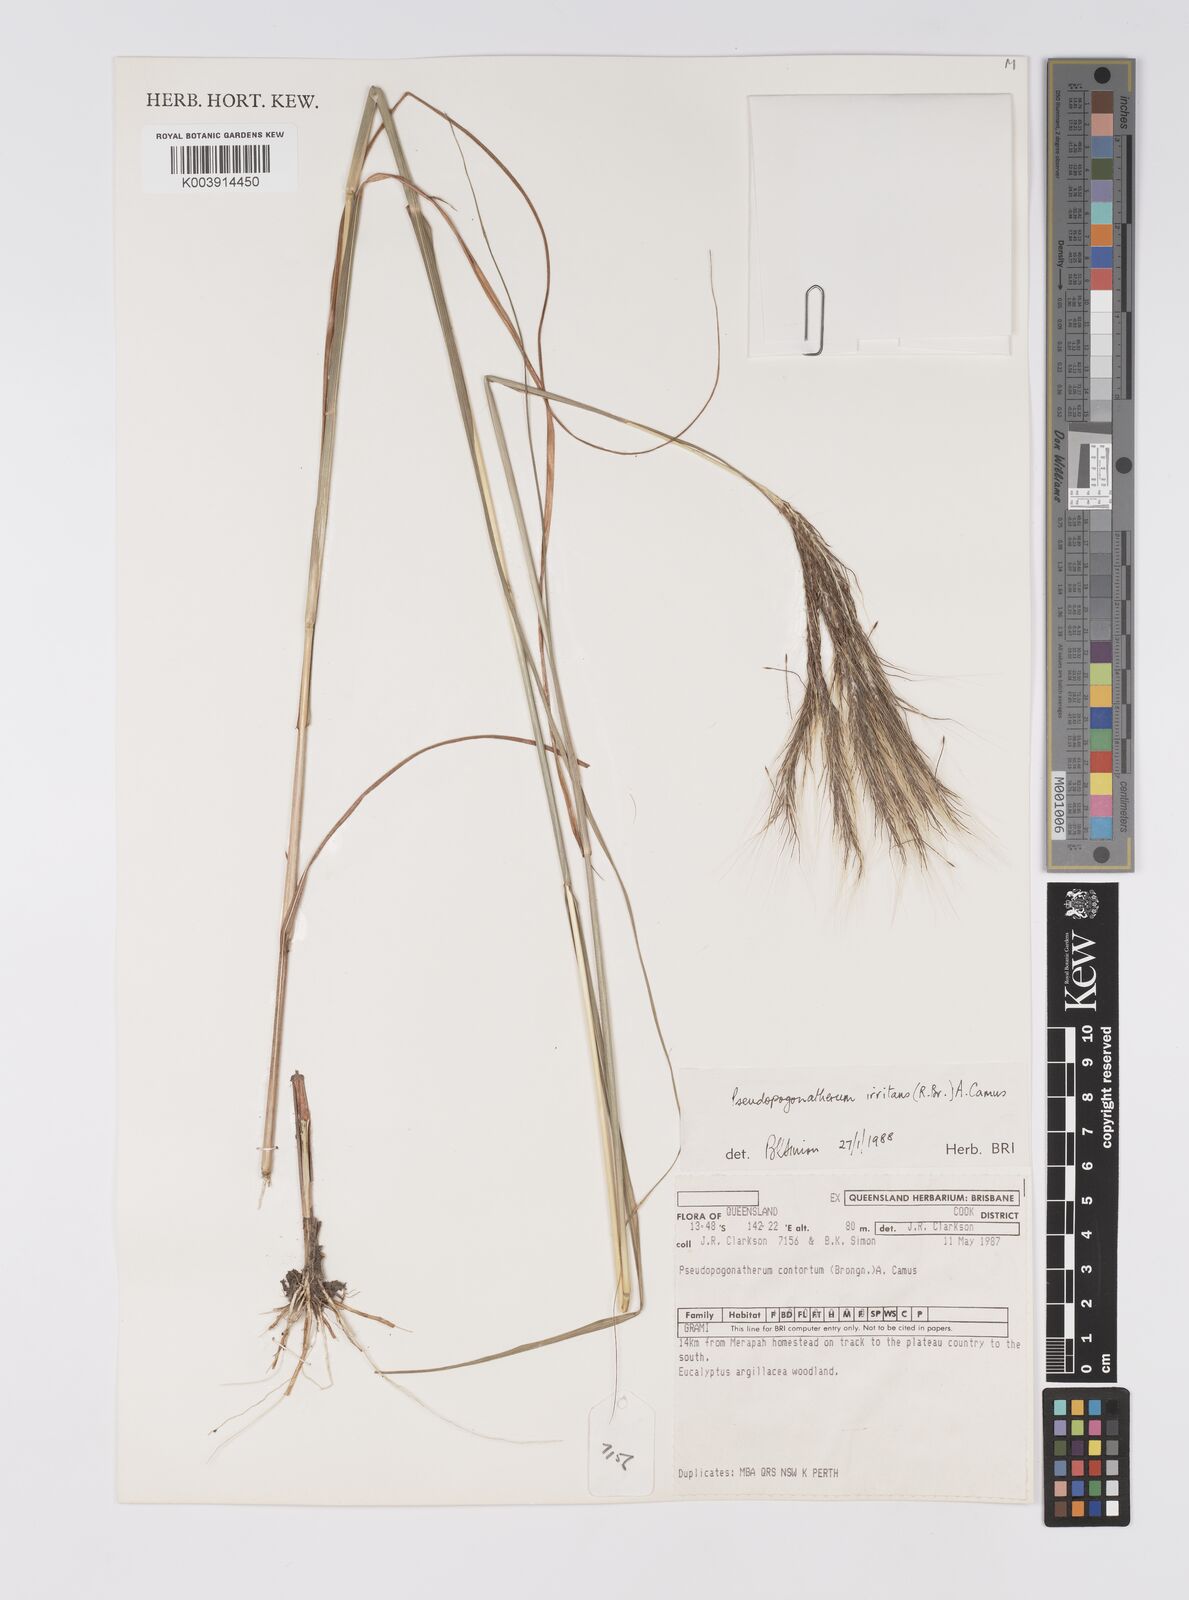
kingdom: Plantae
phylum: Tracheophyta
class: Liliopsida
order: Poales
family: Poaceae
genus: Pseudopogonatherum
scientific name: Pseudopogonatherum irritans
